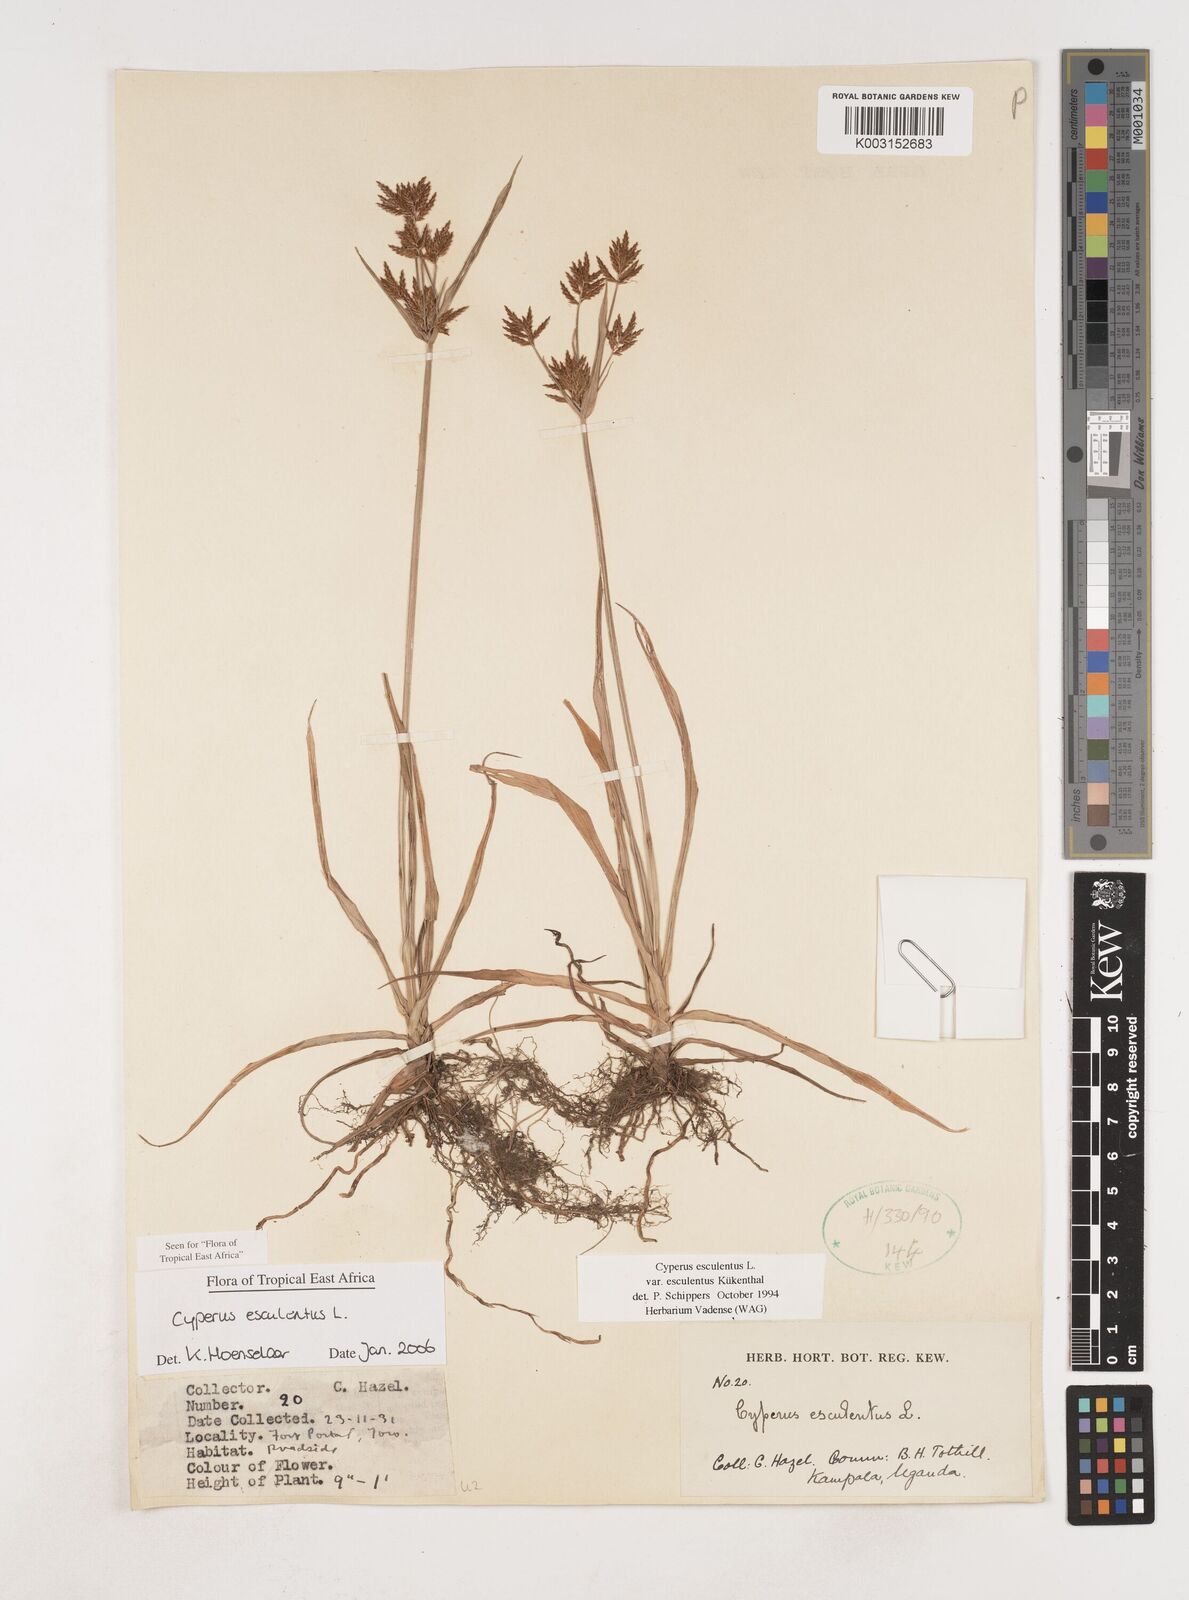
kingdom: Plantae
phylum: Tracheophyta
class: Liliopsida
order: Poales
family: Cyperaceae
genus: Cyperus
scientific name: Cyperus esculentus
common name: Yellow nutsedge
